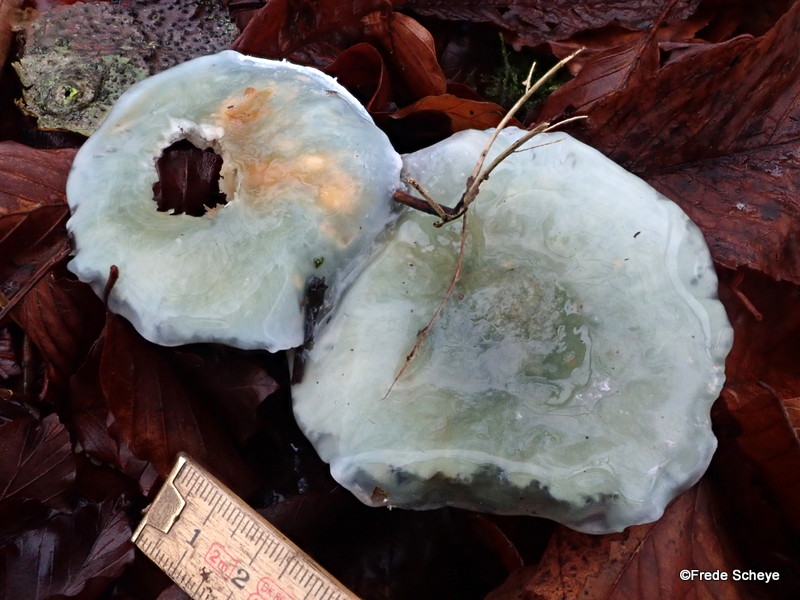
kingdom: Fungi
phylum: Basidiomycota
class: Agaricomycetes
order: Agaricales
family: Strophariaceae
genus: Stropharia
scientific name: Stropharia cyanea
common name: blågrøn bredblad
